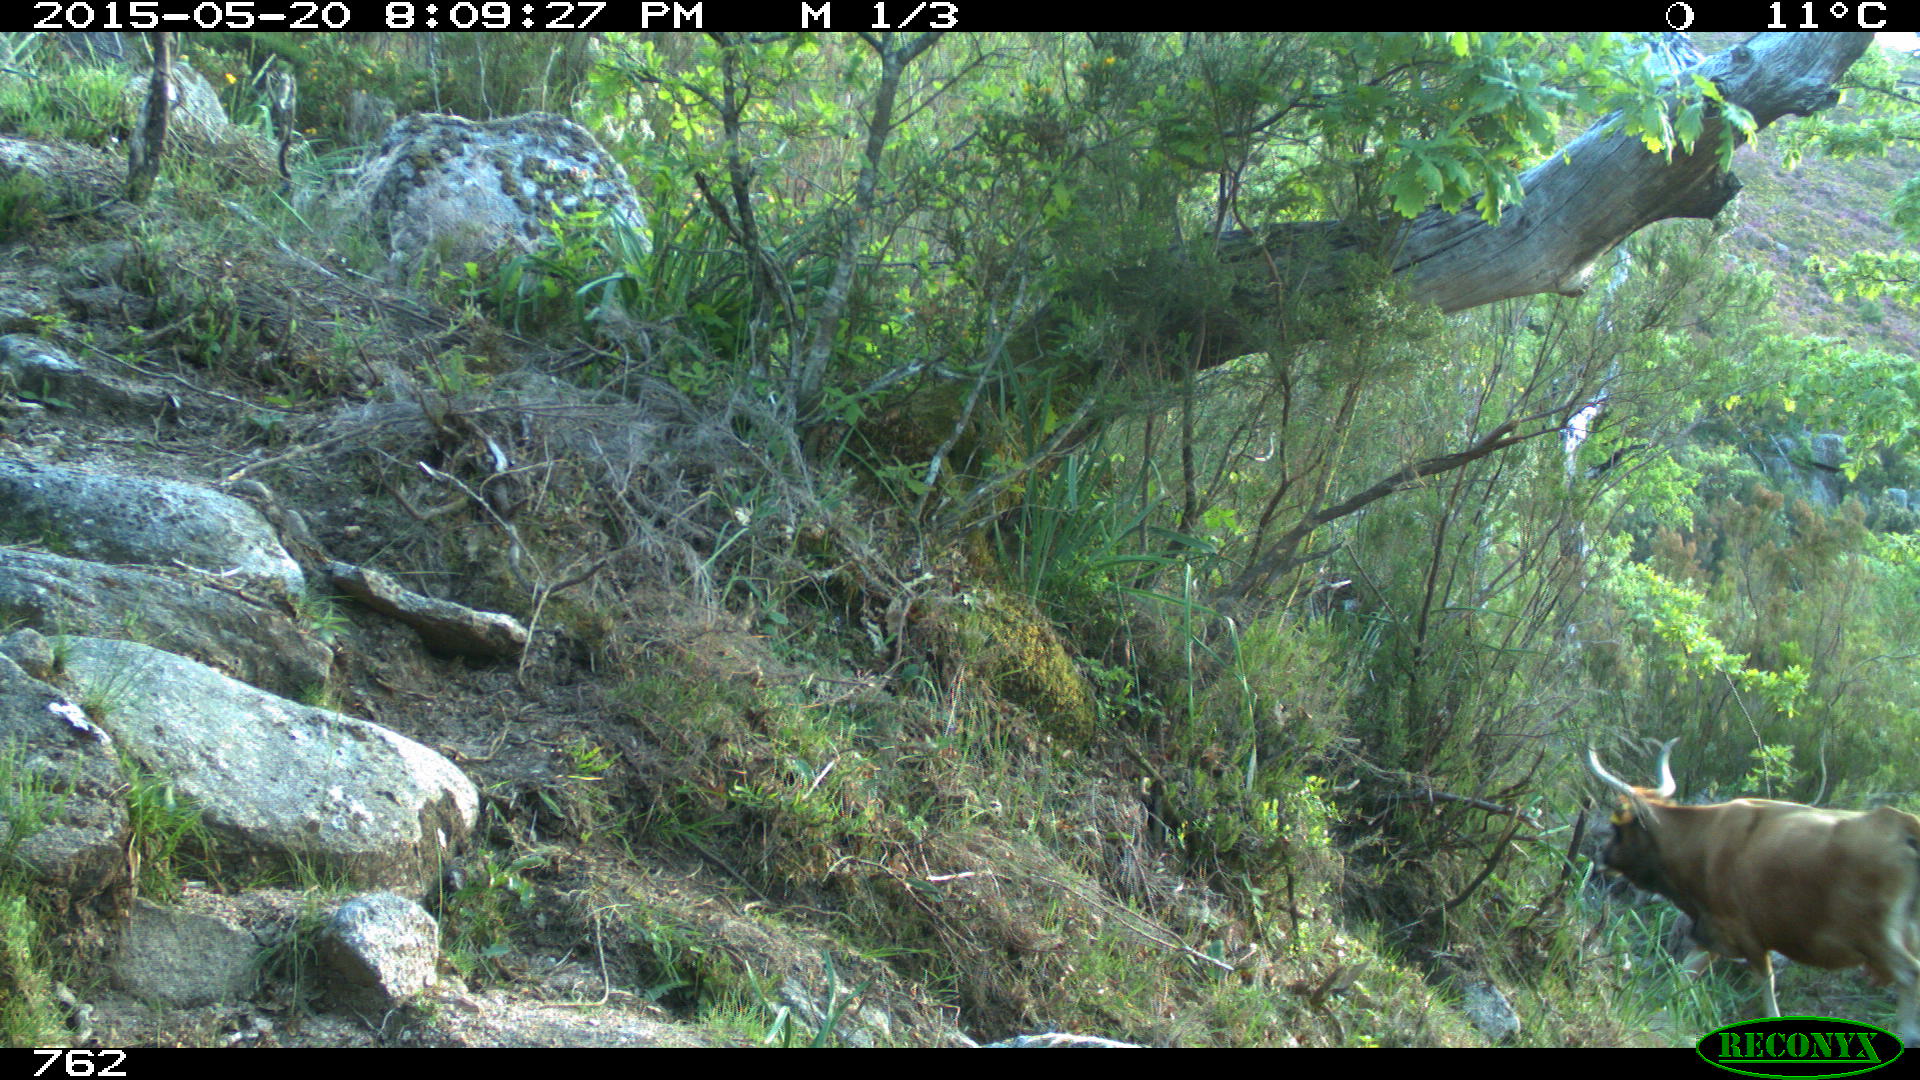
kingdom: Animalia
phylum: Chordata
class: Mammalia
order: Artiodactyla
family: Bovidae
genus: Bos
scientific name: Bos taurus
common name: Domesticated cattle
